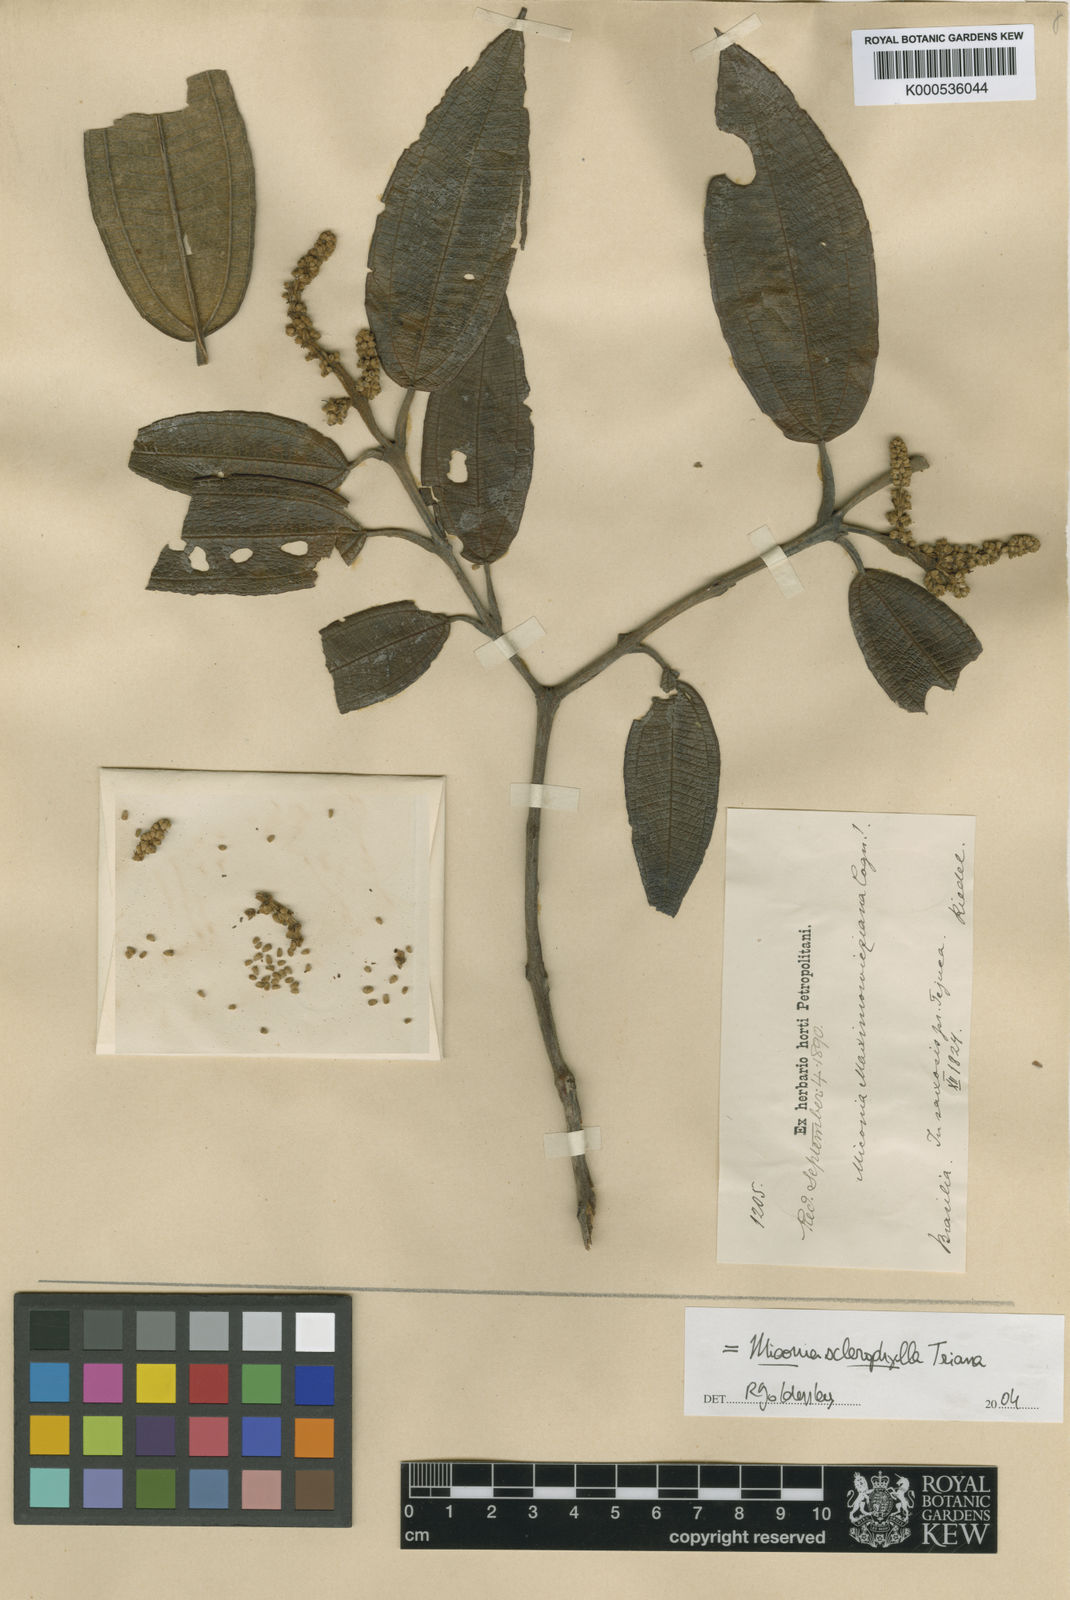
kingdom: Plantae
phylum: Tracheophyta
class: Magnoliopsida
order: Myrtales
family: Melastomataceae
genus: Miconia
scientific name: Miconia sclerophylla
